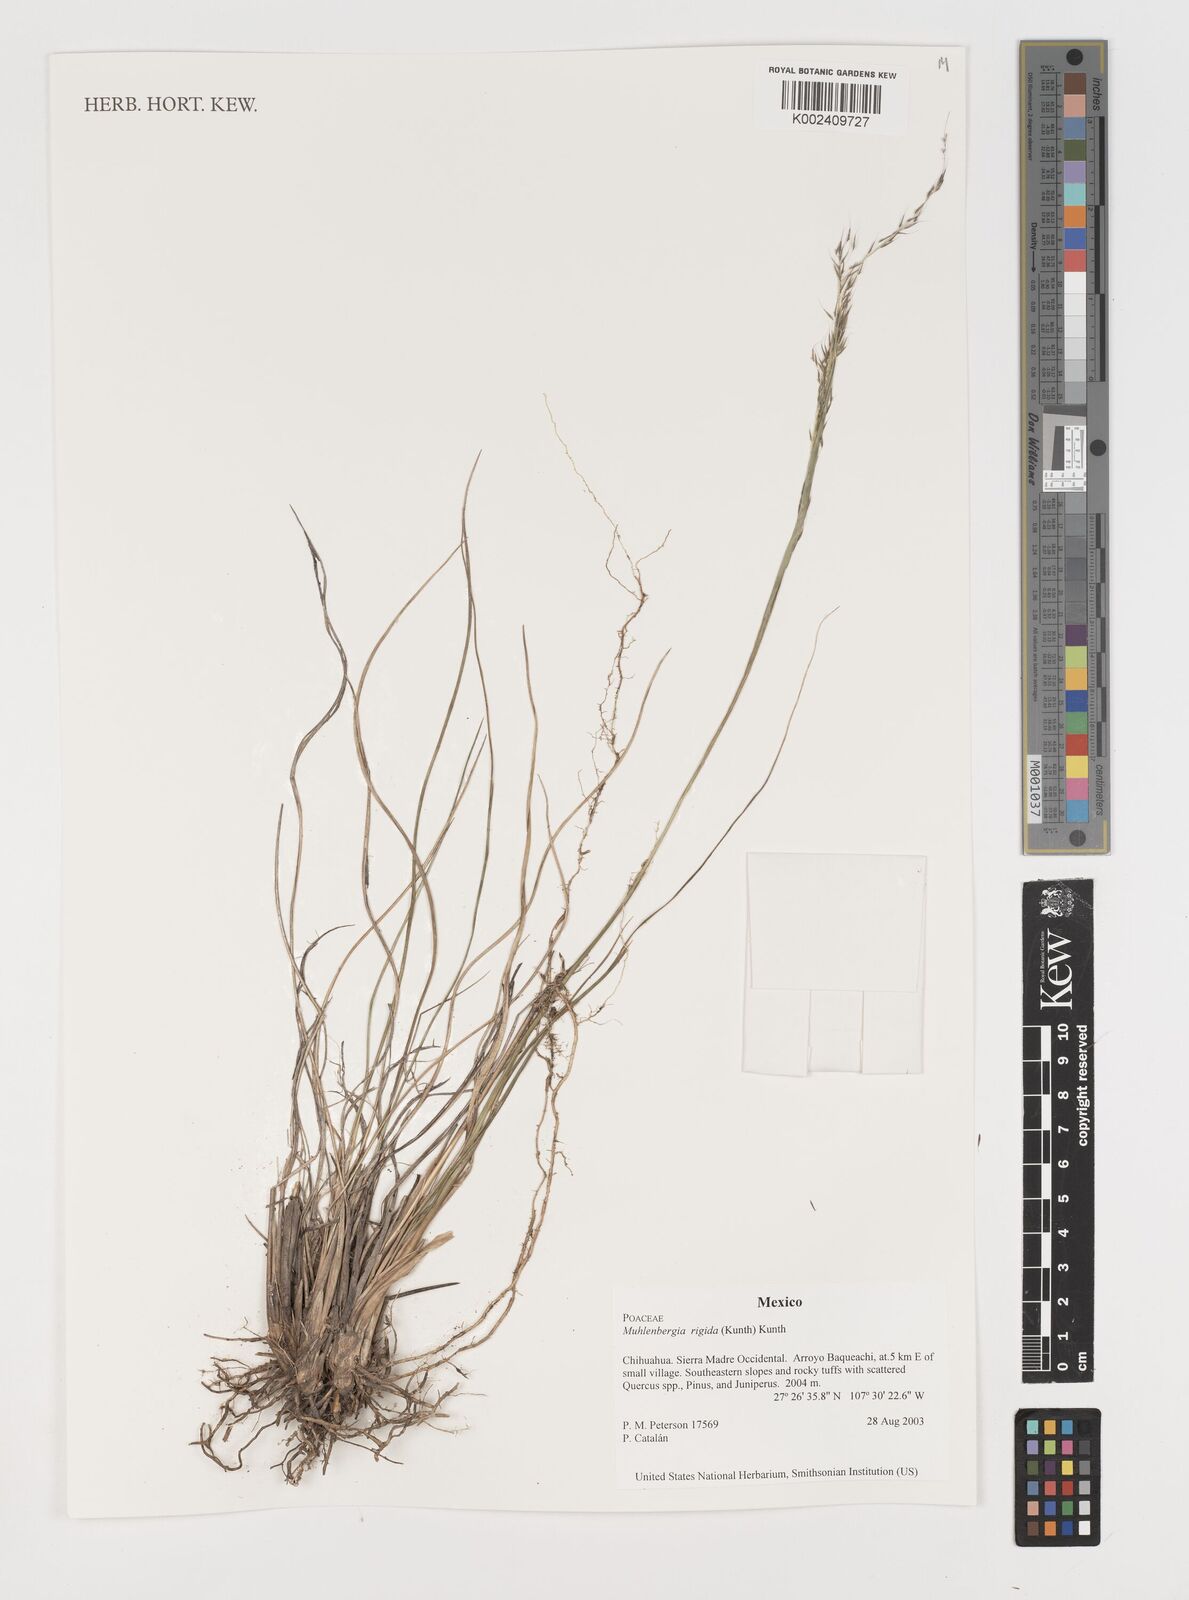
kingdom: Plantae
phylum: Tracheophyta
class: Liliopsida
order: Poales
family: Poaceae
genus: Muhlenbergia
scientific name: Muhlenbergia rigida
